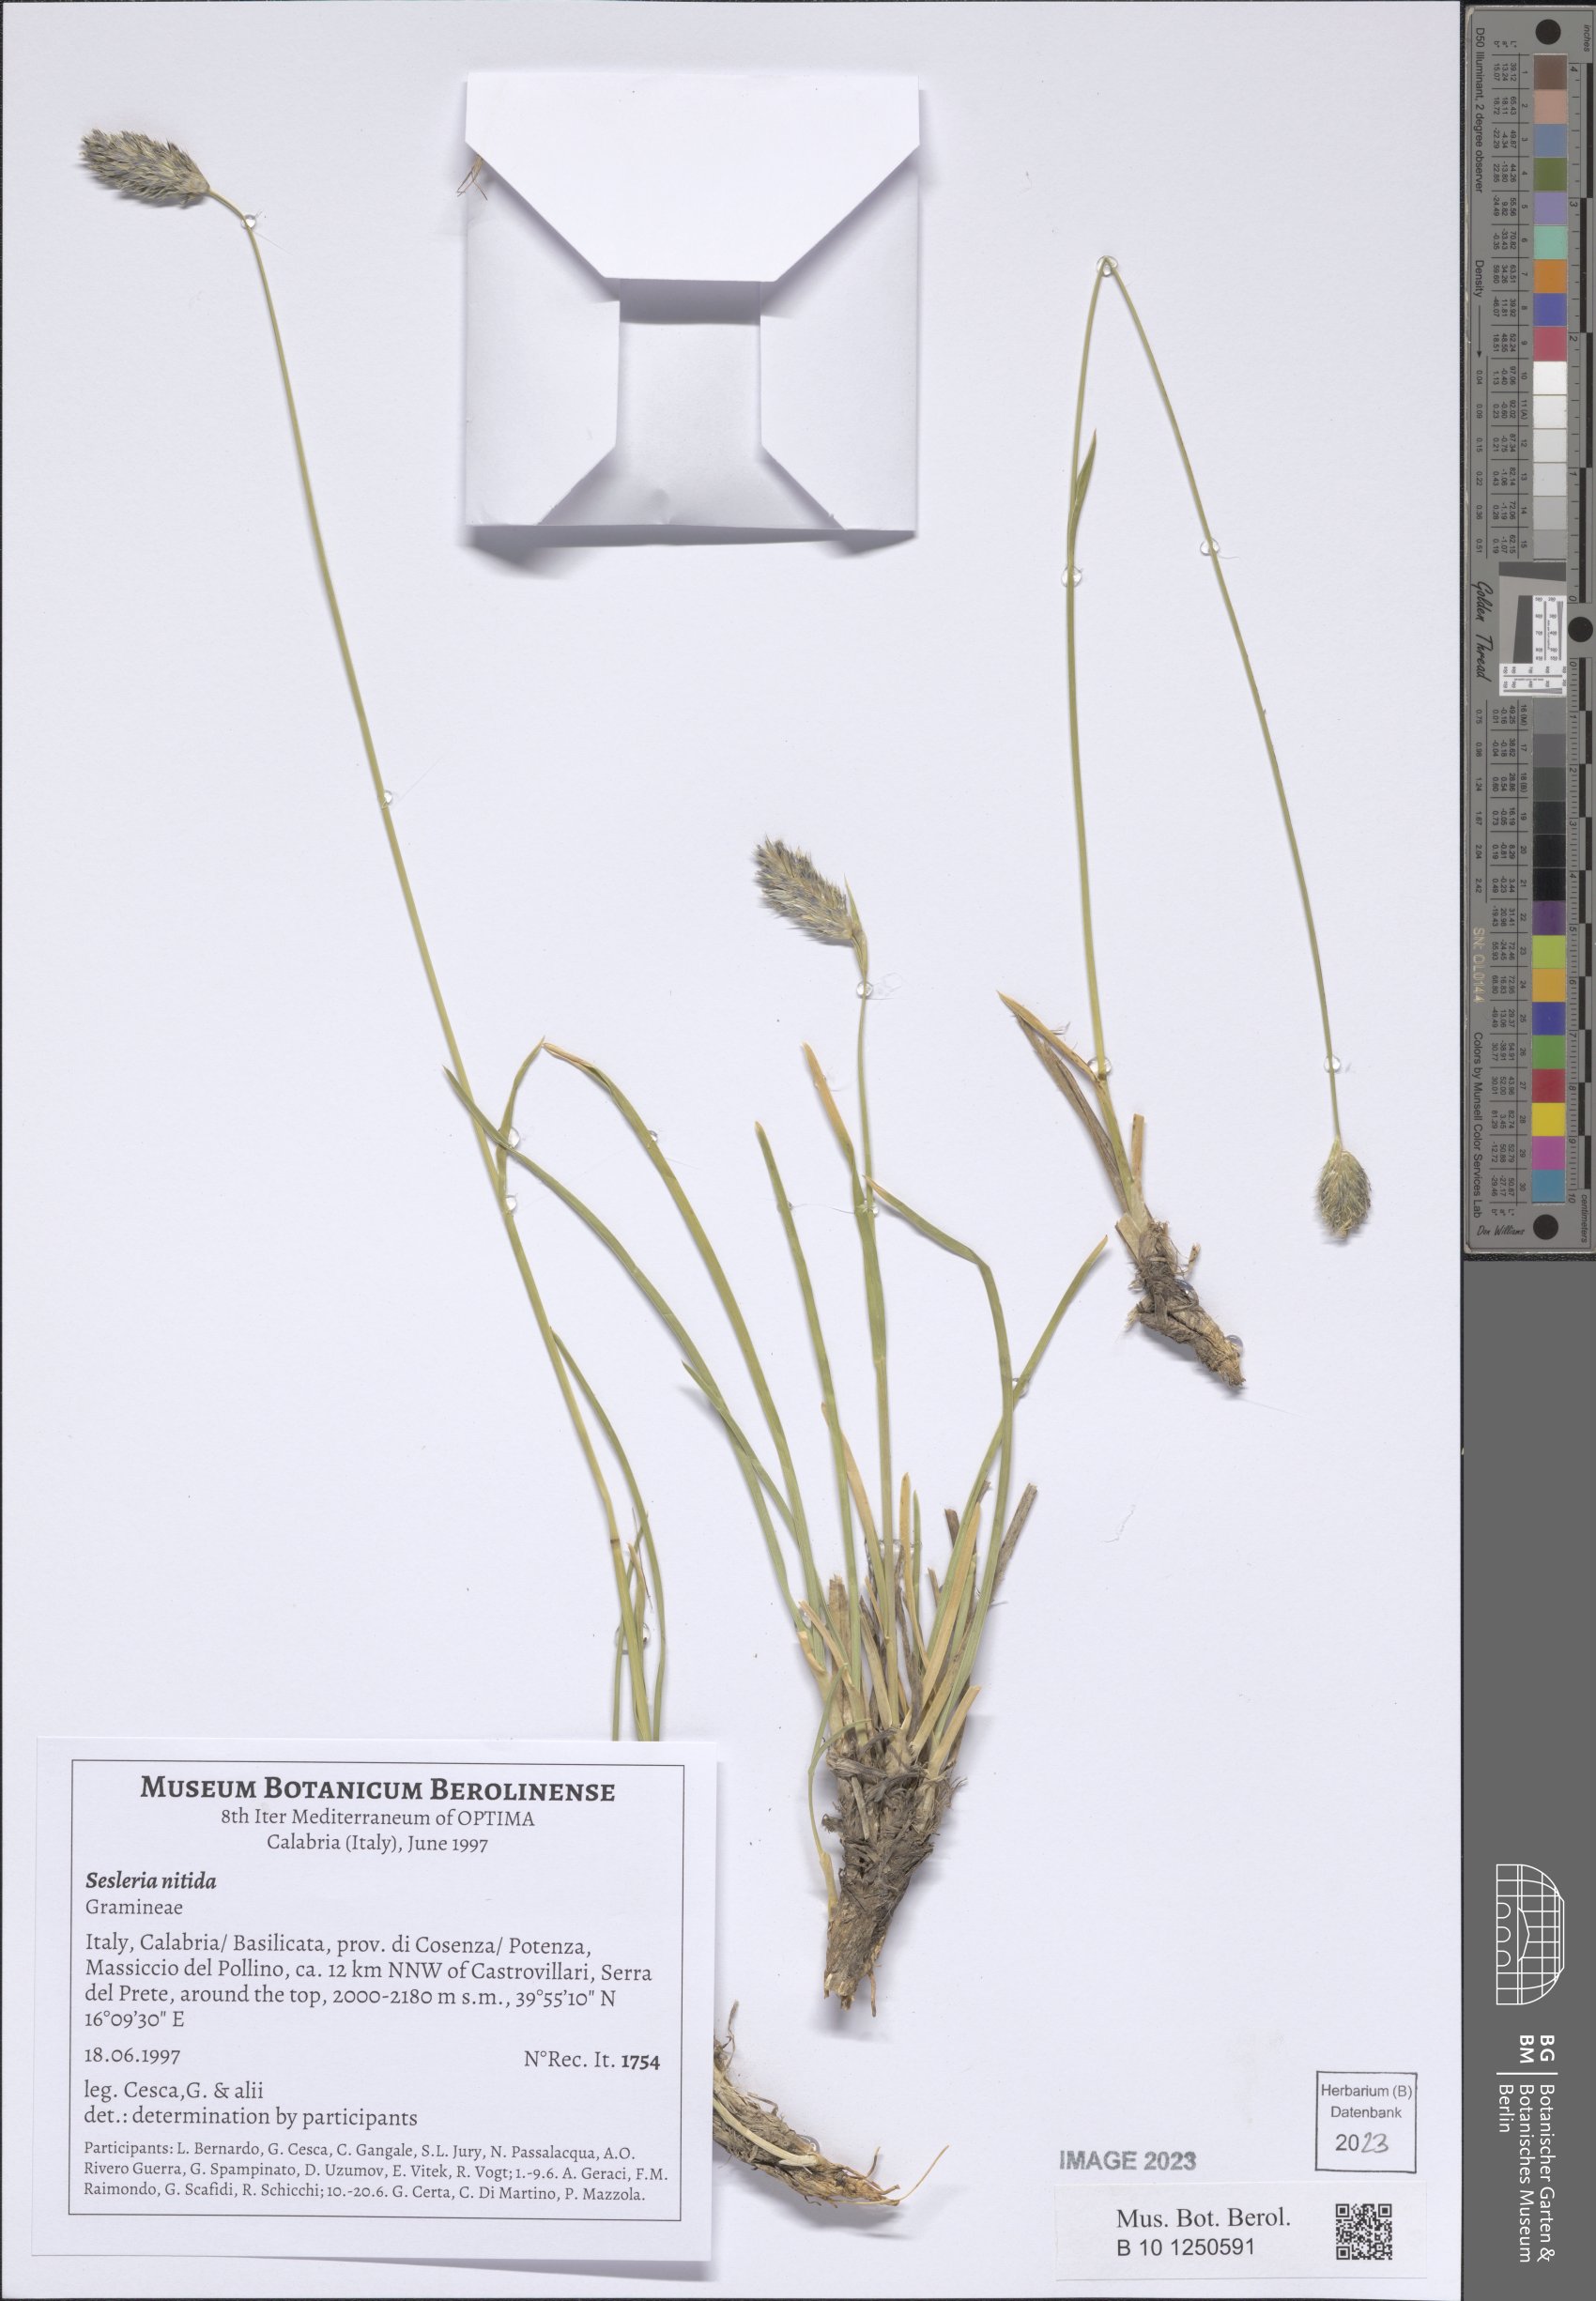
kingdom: Plantae
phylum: Tracheophyta
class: Liliopsida
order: Poales
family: Poaceae
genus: Sesleria
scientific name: Sesleria nitida
